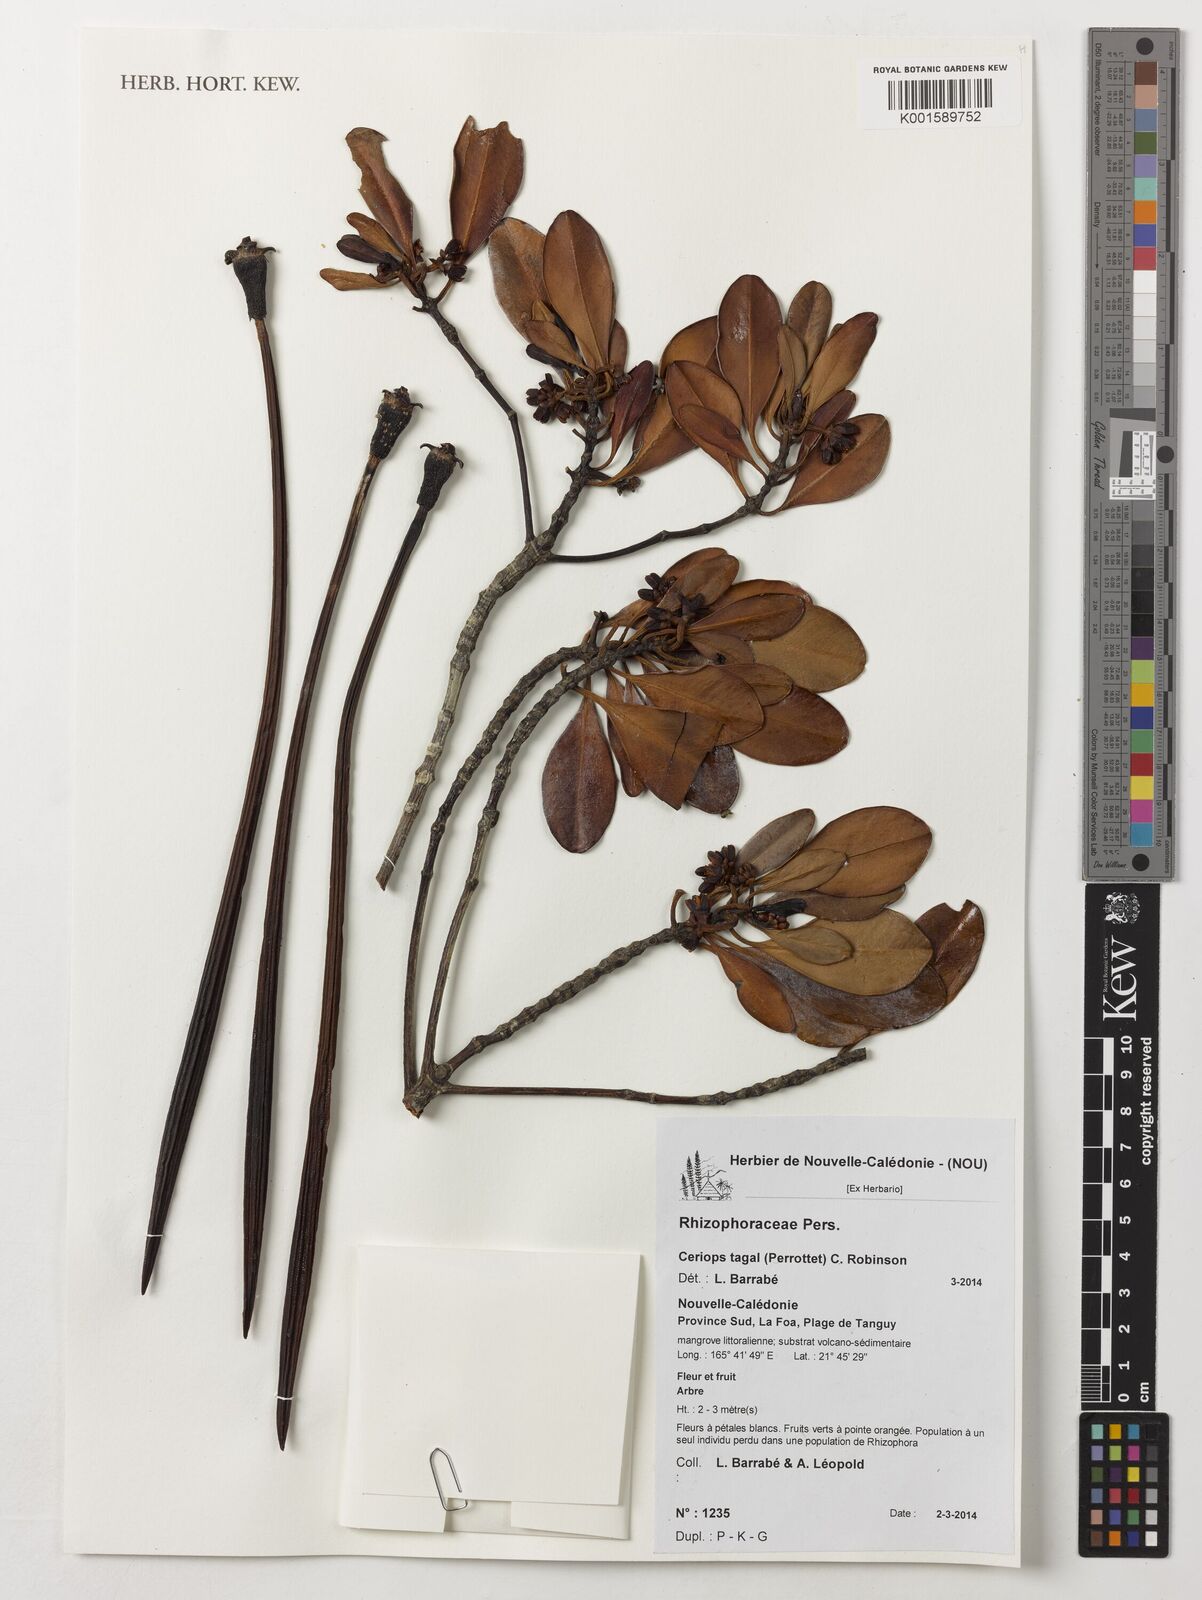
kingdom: Plantae
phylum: Tracheophyta
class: Magnoliopsida
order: Malpighiales
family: Rhizophoraceae
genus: Ceriops
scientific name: Ceriops tagal
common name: Spurred mangrove
